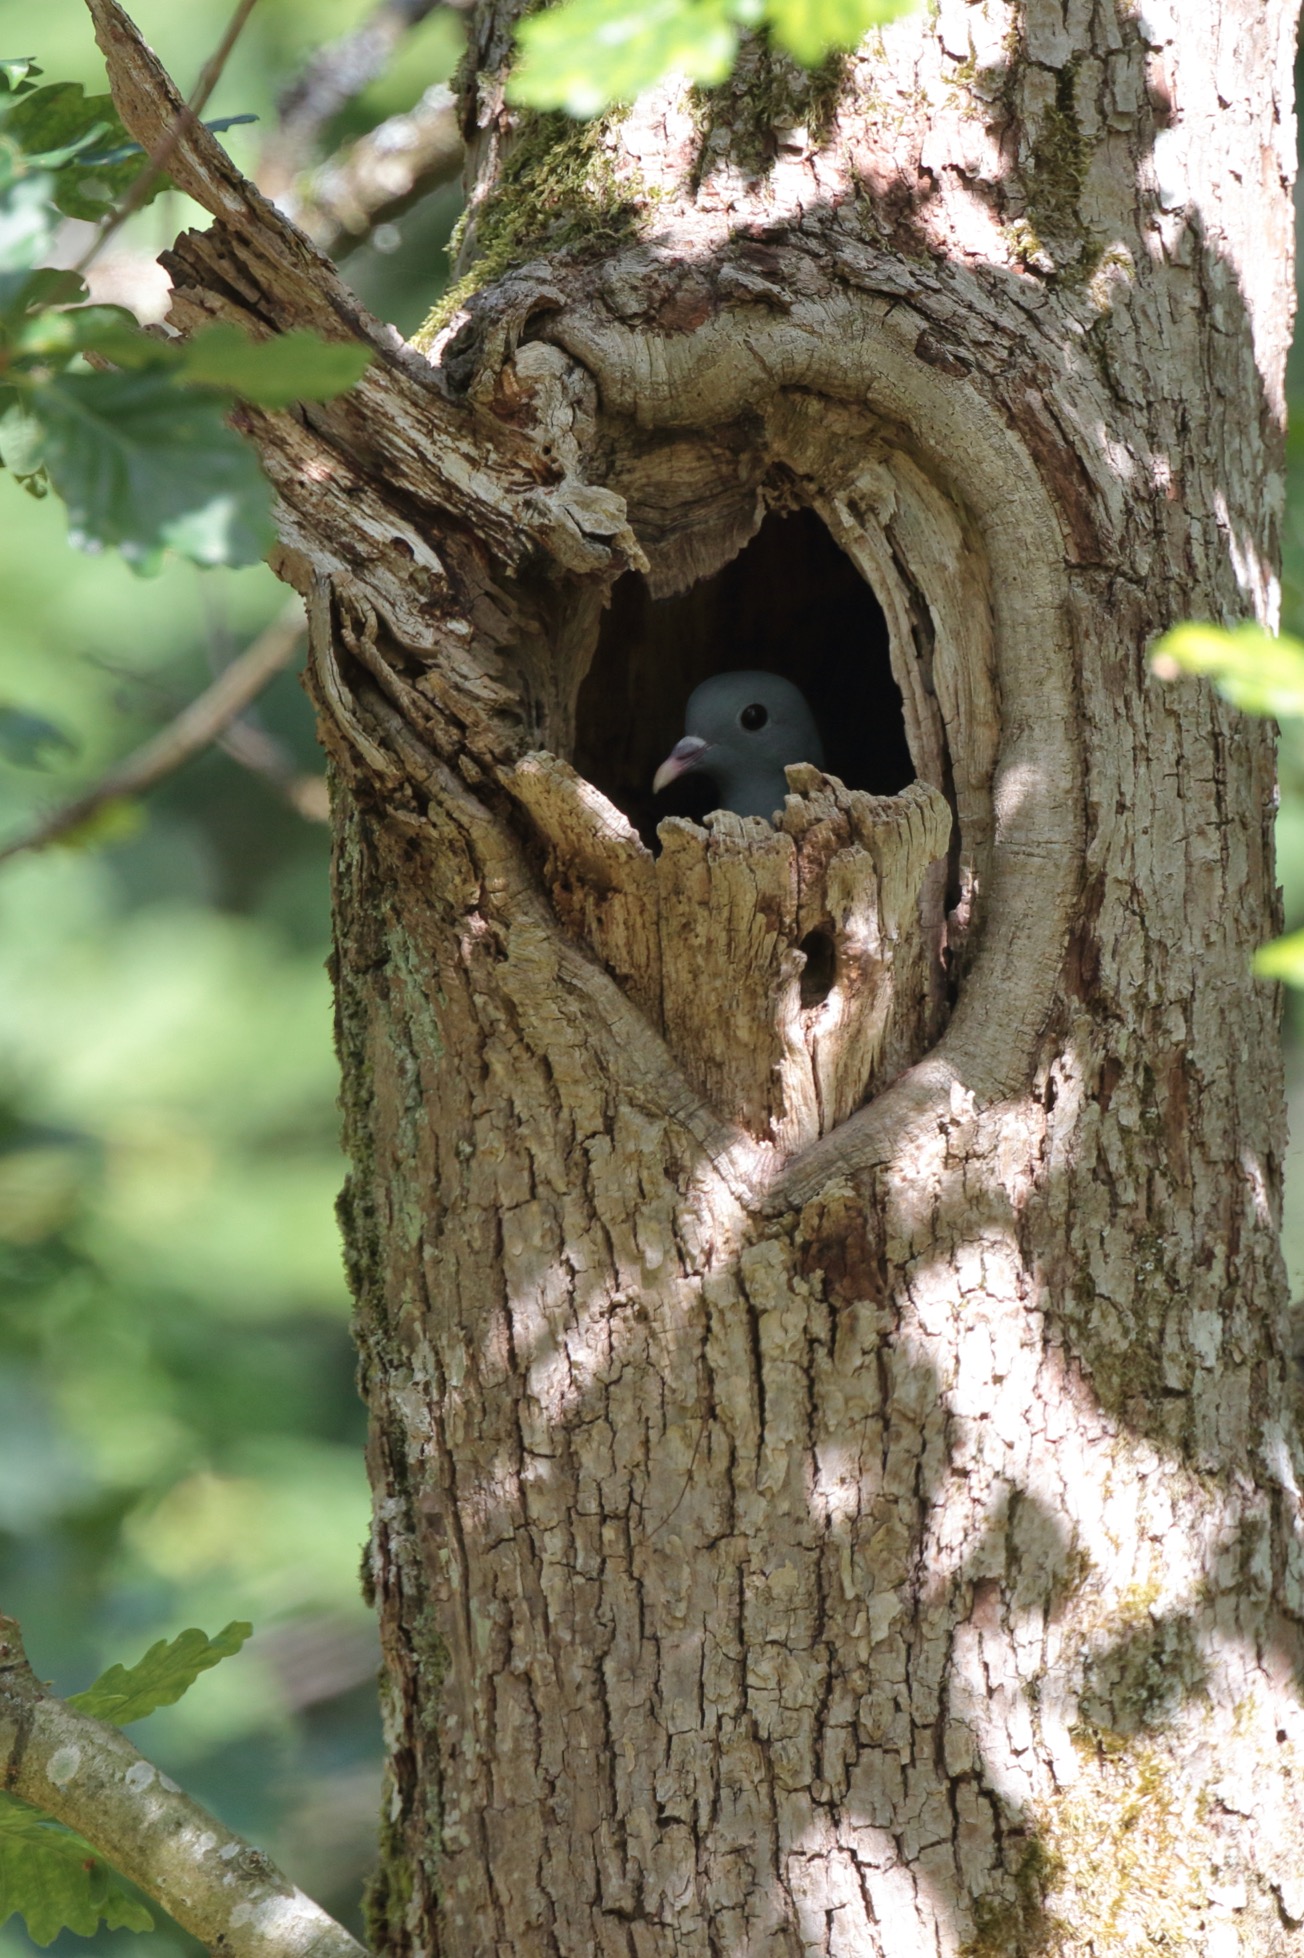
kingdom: Animalia
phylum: Chordata
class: Aves
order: Columbiformes
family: Columbidae
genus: Columba
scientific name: Columba oenas
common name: Huldue
